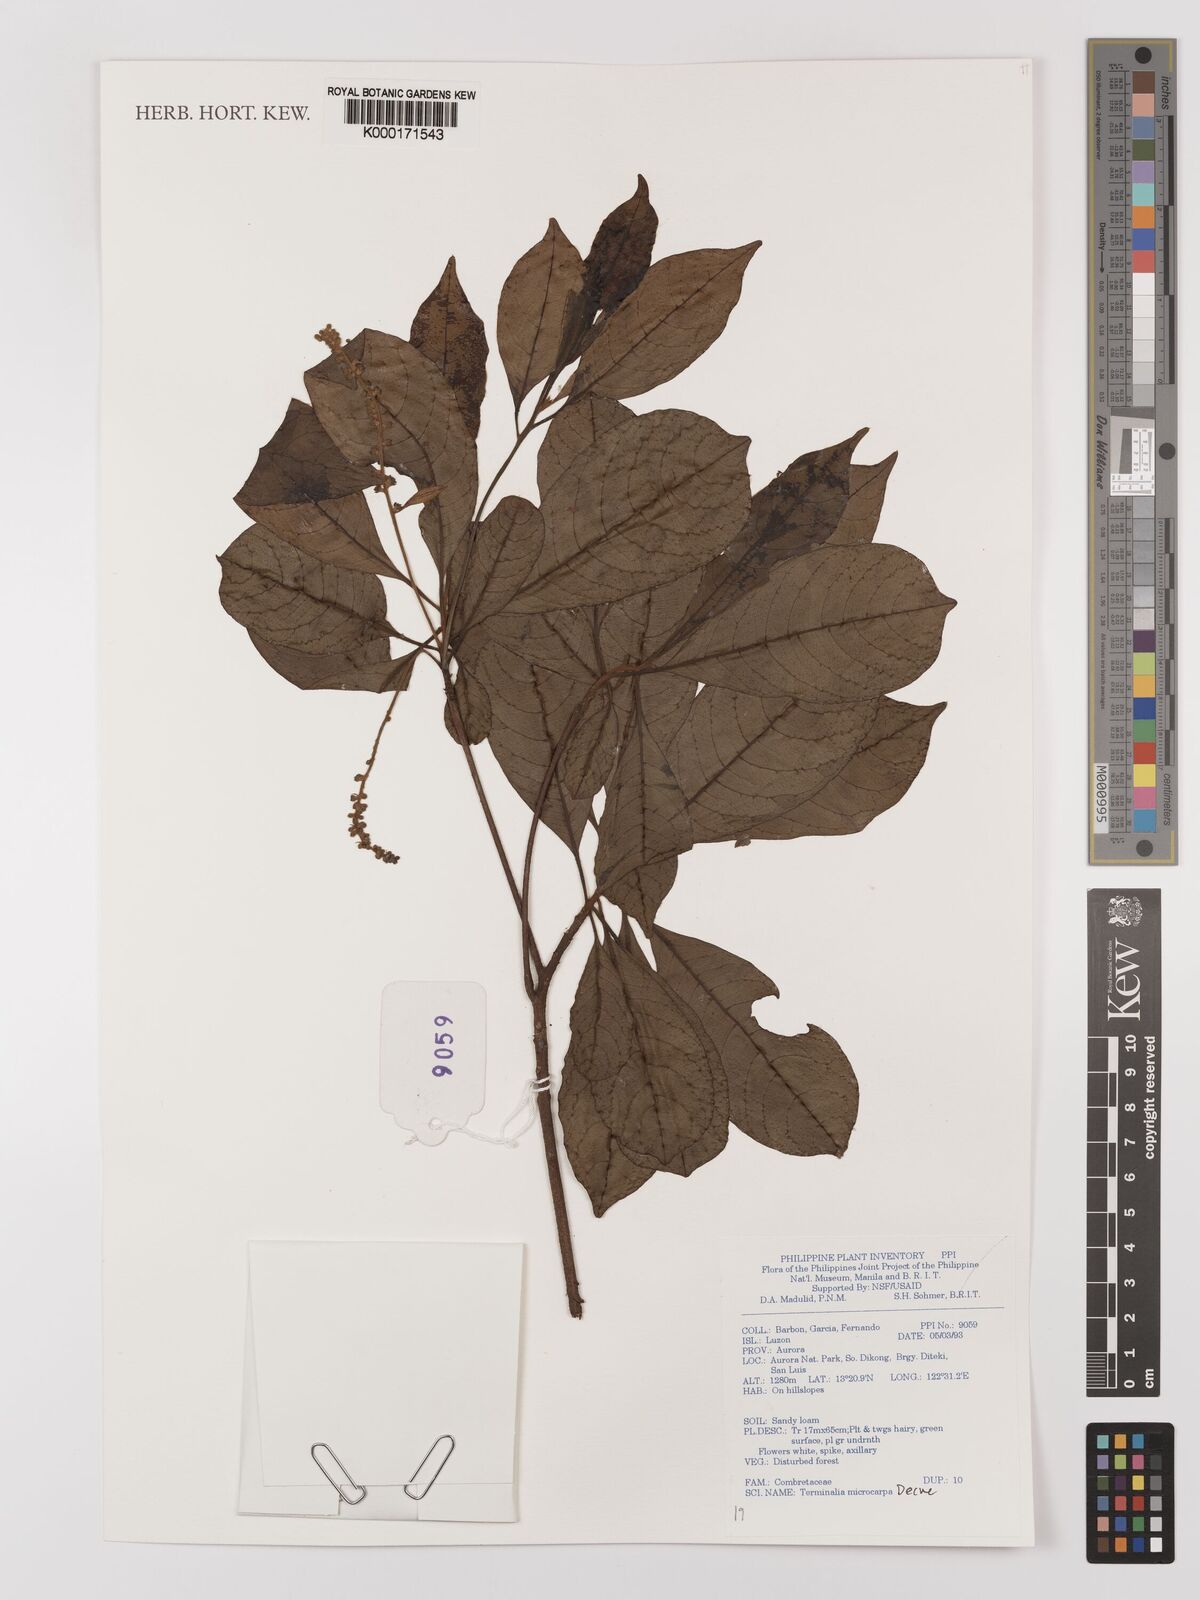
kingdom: Plantae
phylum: Tracheophyta
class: Magnoliopsida
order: Myrtales
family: Combretaceae
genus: Terminalia
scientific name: Terminalia microcarpa
